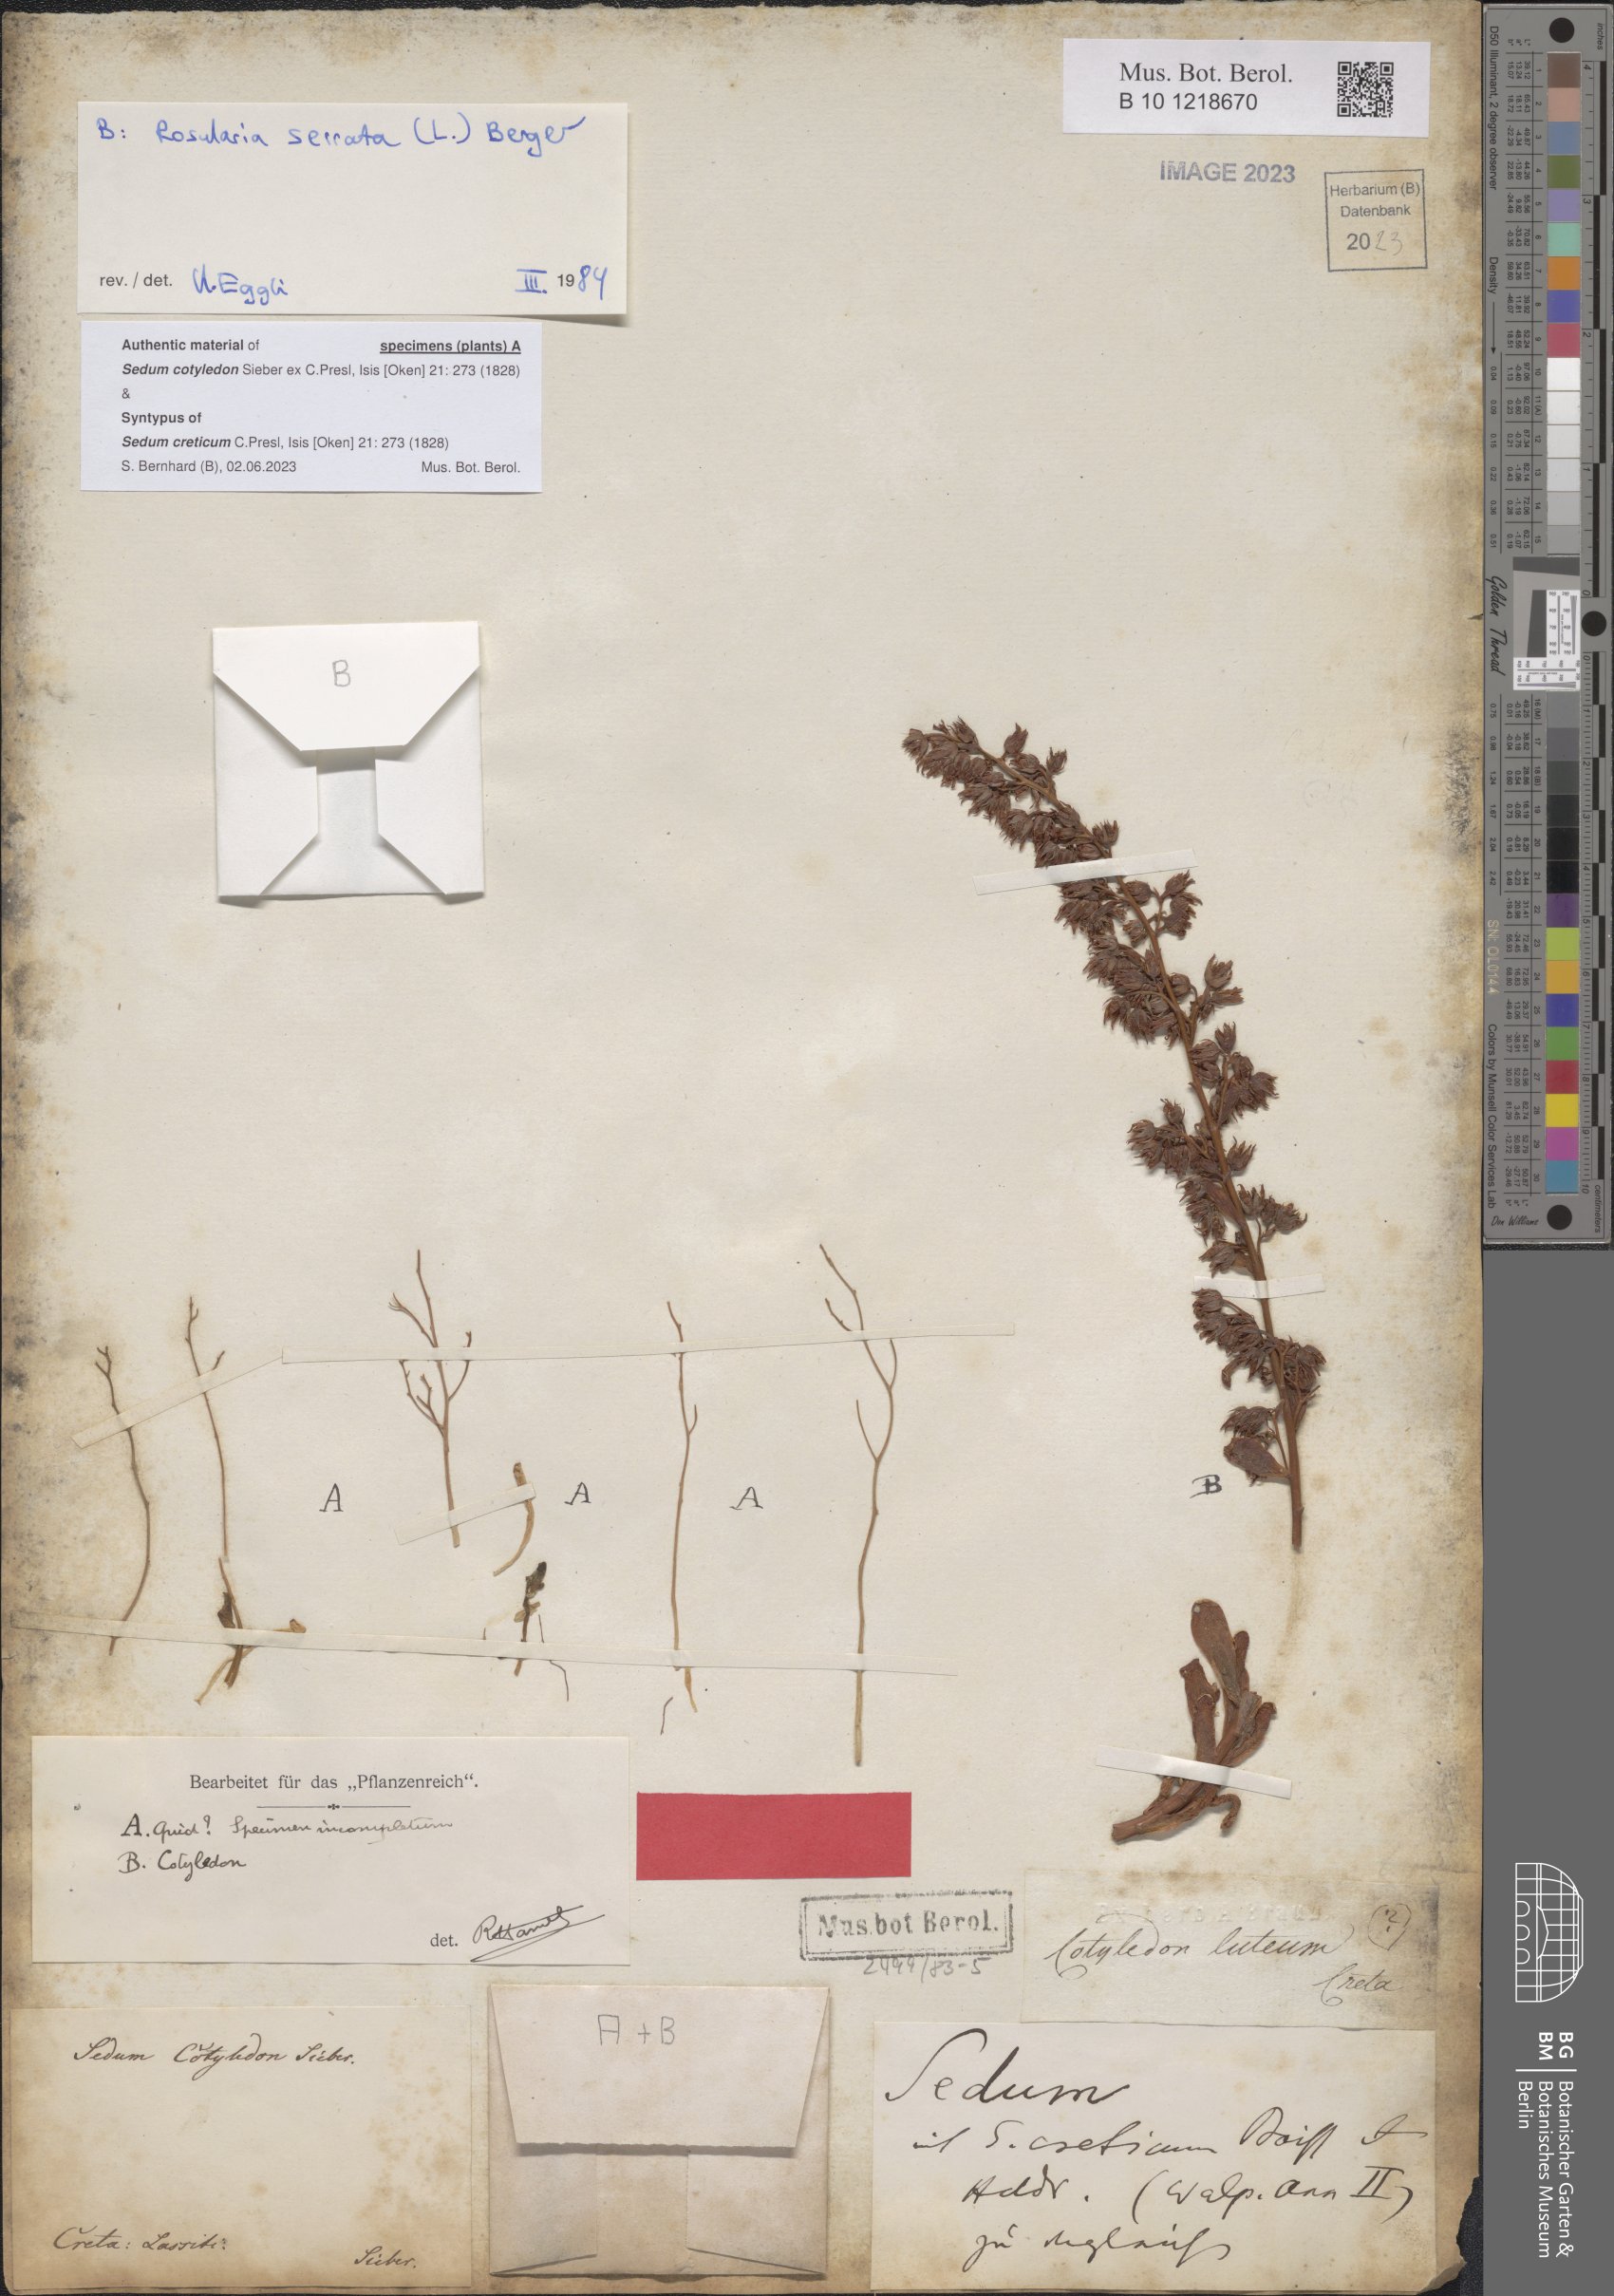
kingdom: Plantae
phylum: Tracheophyta
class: Magnoliopsida
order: Saxifragales
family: Crassulaceae
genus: Sedum
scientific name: Sedum creticum
